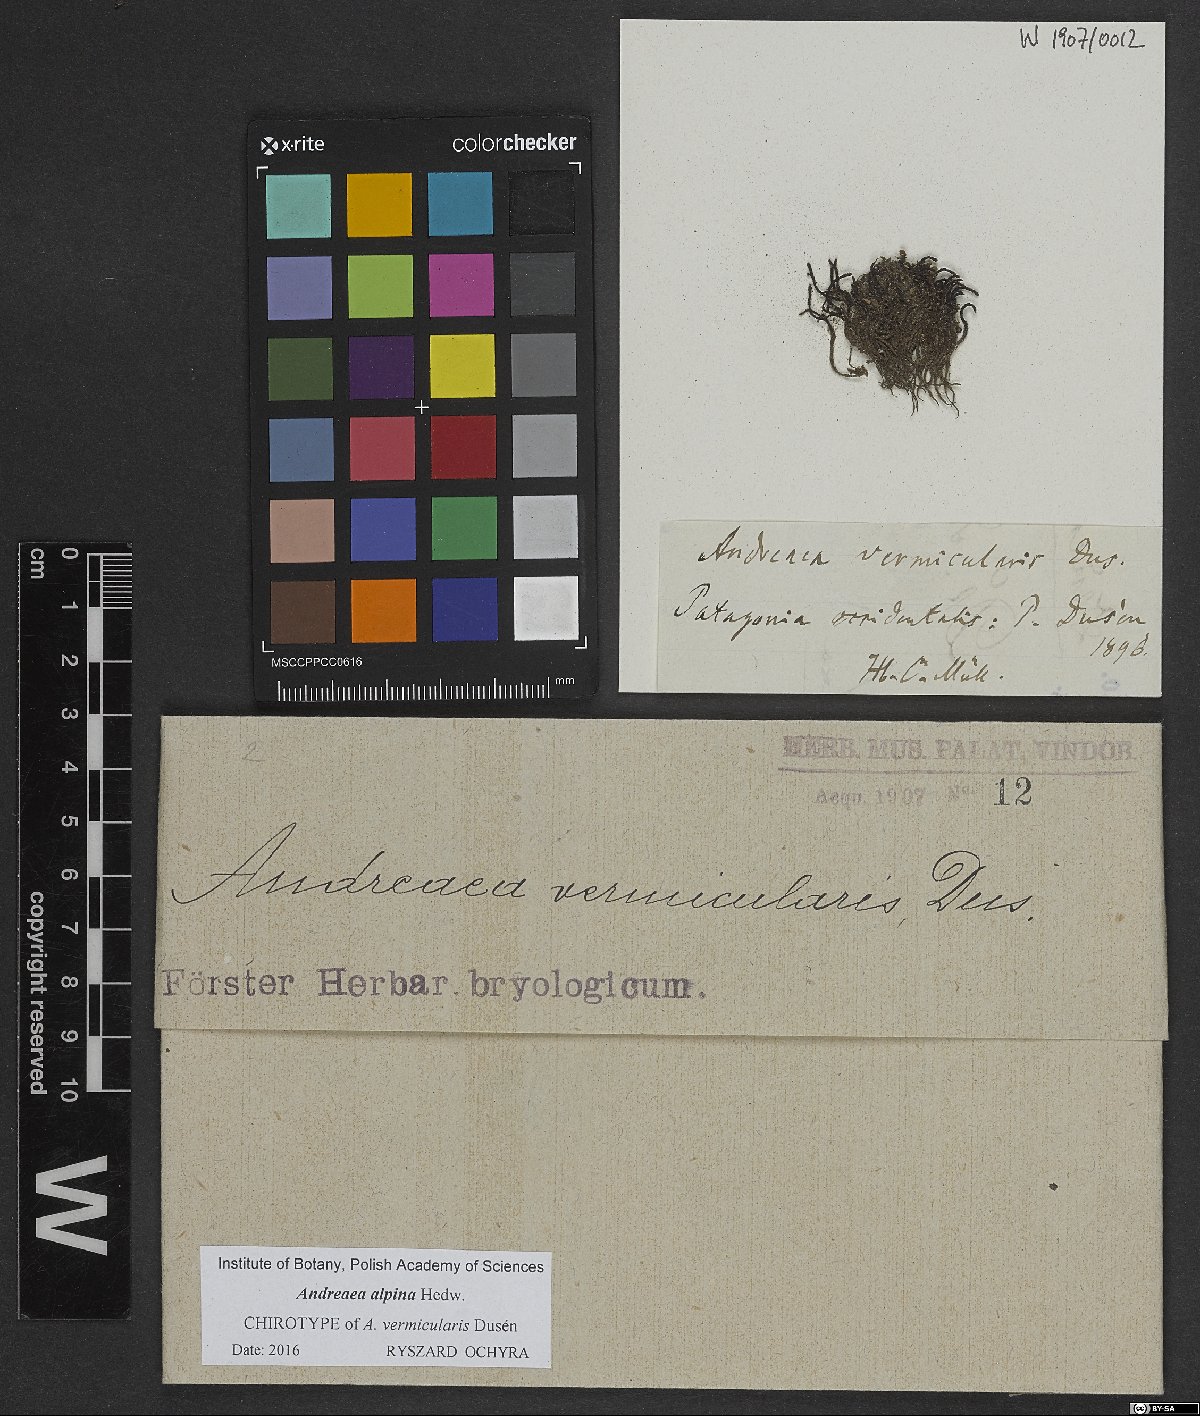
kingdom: Plantae
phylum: Bryophyta
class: Andreaeopsida
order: Andreaeales
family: Andreaeaceae
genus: Andreaea
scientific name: Andreaea
